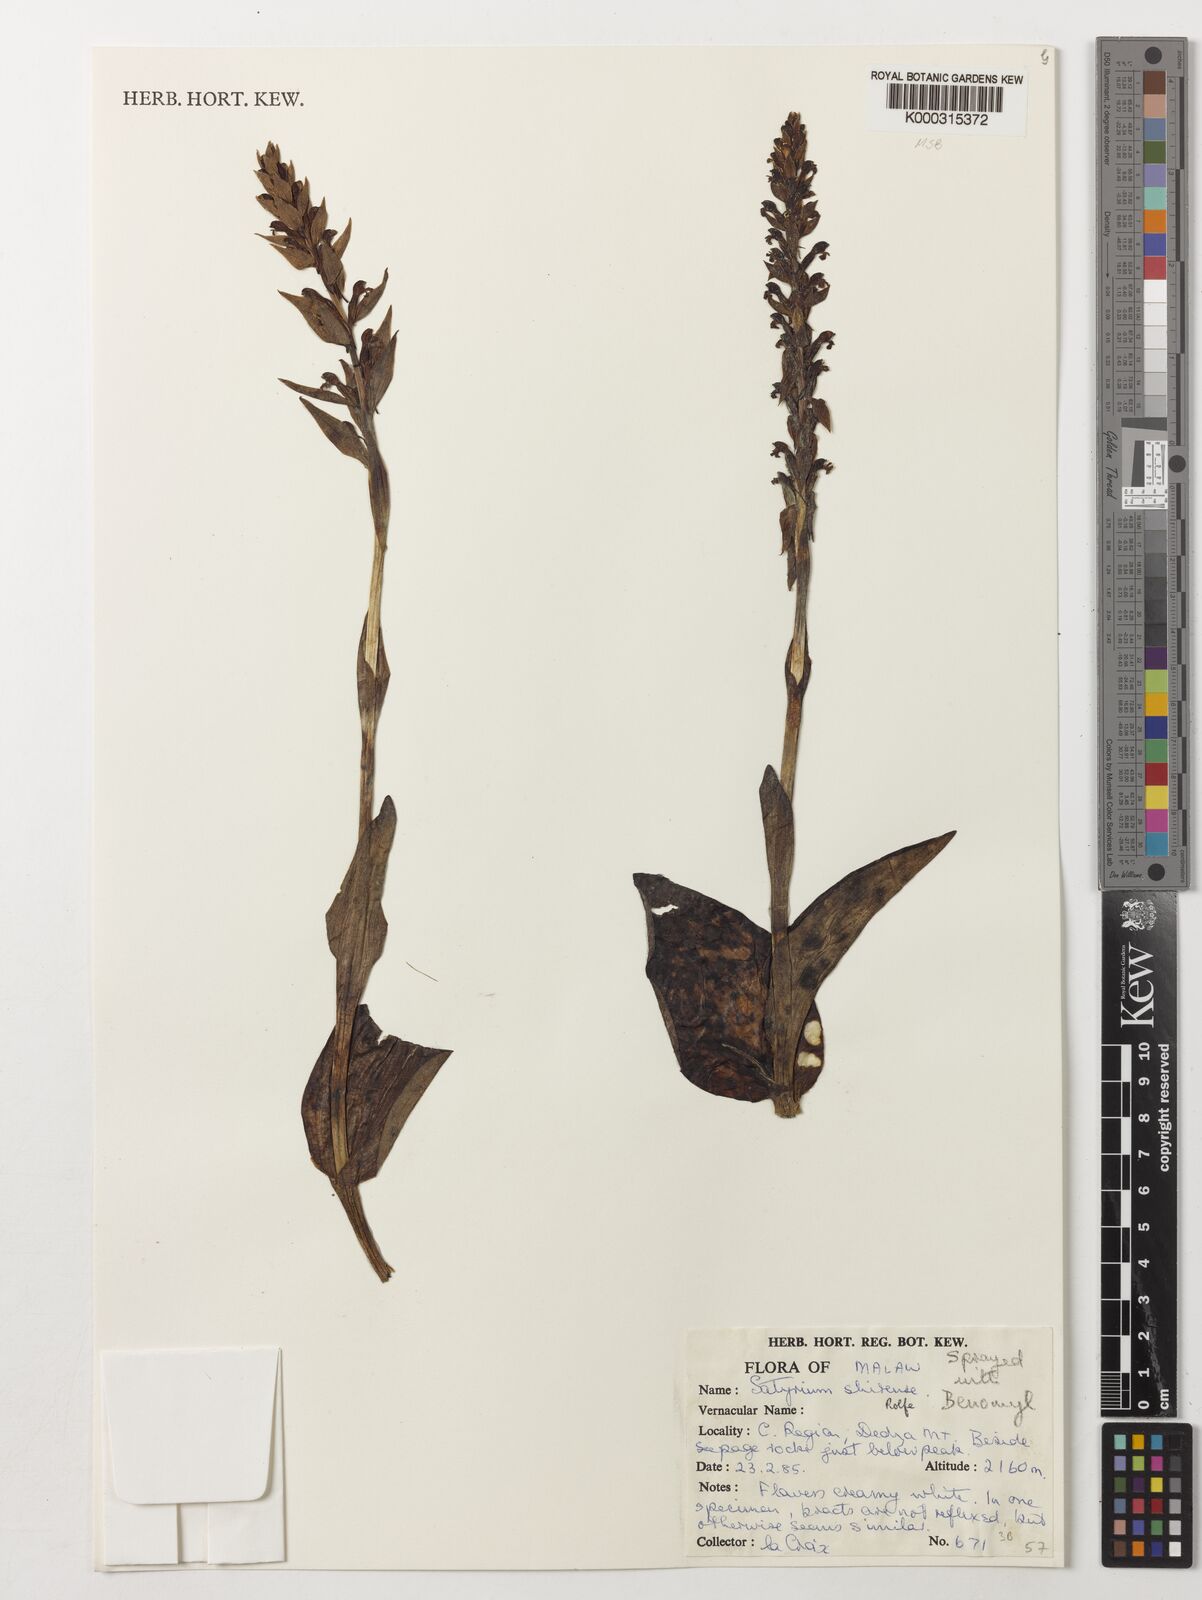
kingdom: Plantae
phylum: Tracheophyta
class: Liliopsida
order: Asparagales
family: Orchidaceae
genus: Satyrium
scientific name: Satyrium shirense
